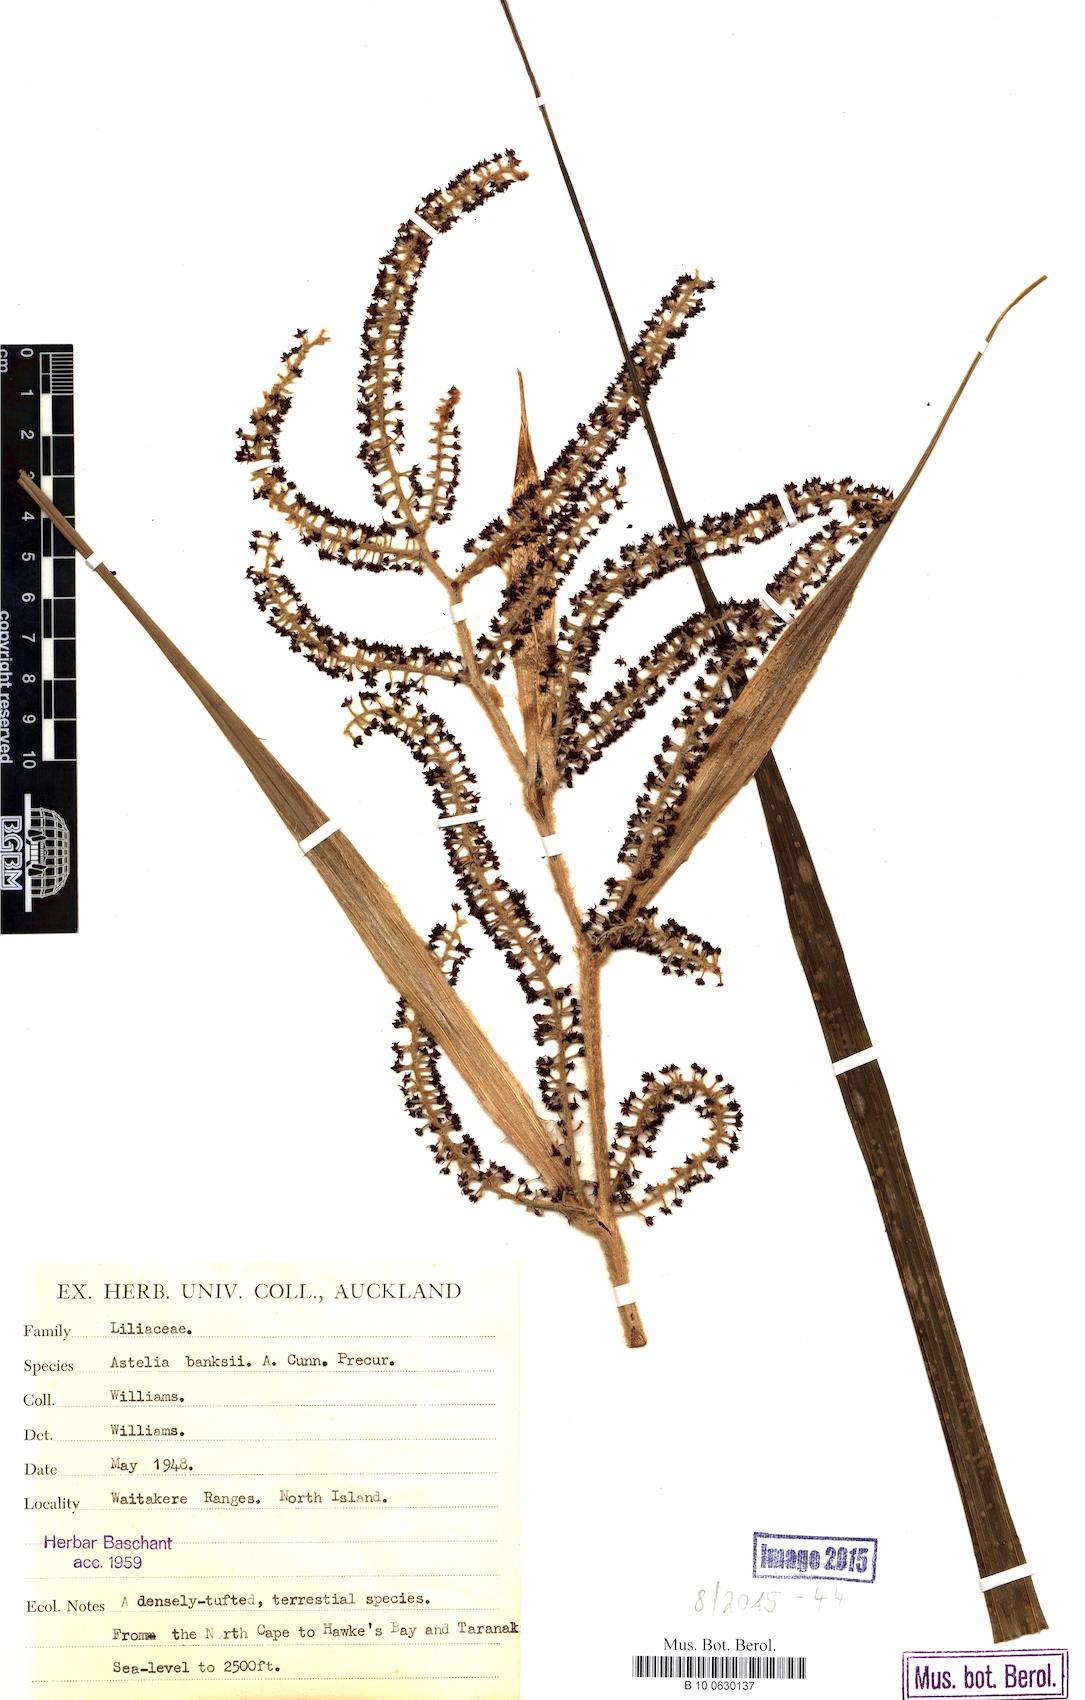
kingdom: Plantae
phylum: Tracheophyta
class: Liliopsida
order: Asparagales
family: Asteliaceae
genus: Astelia
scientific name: Astelia banksii
